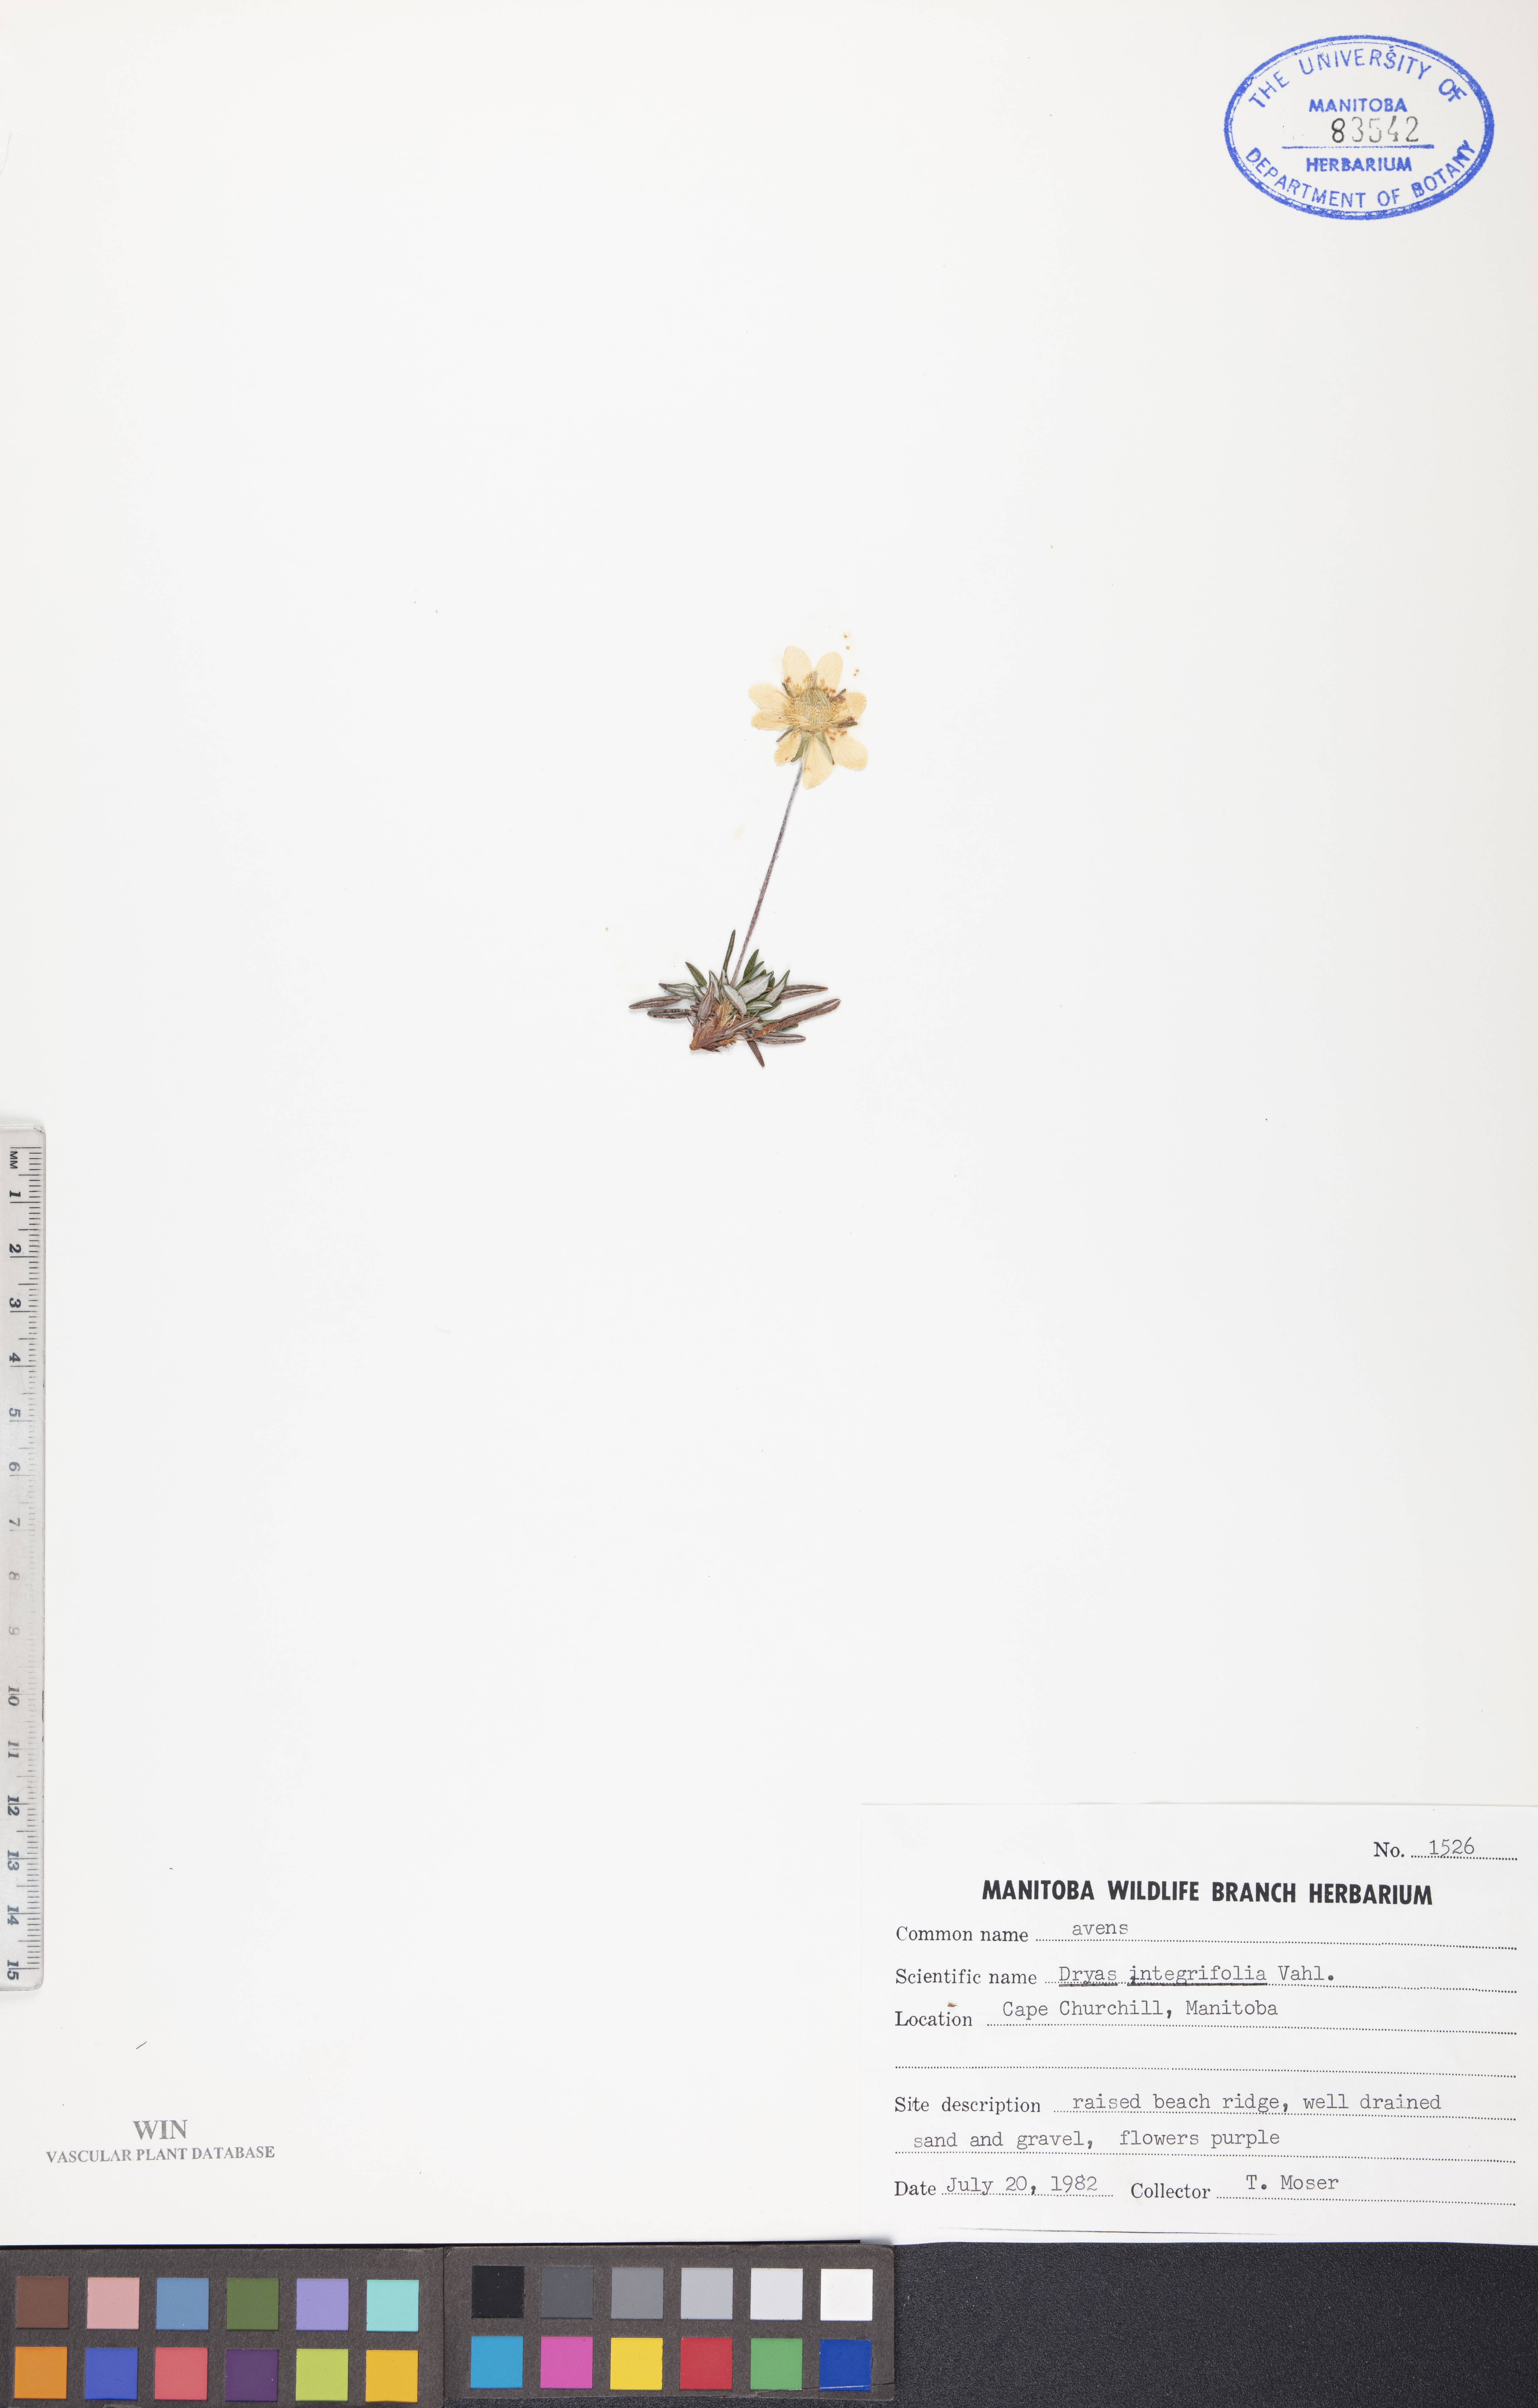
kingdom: Plantae
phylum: Tracheophyta
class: Magnoliopsida
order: Rosales
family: Rosaceae
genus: Dryas
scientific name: Dryas integrifolia
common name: Entire-leaved mountain avens
